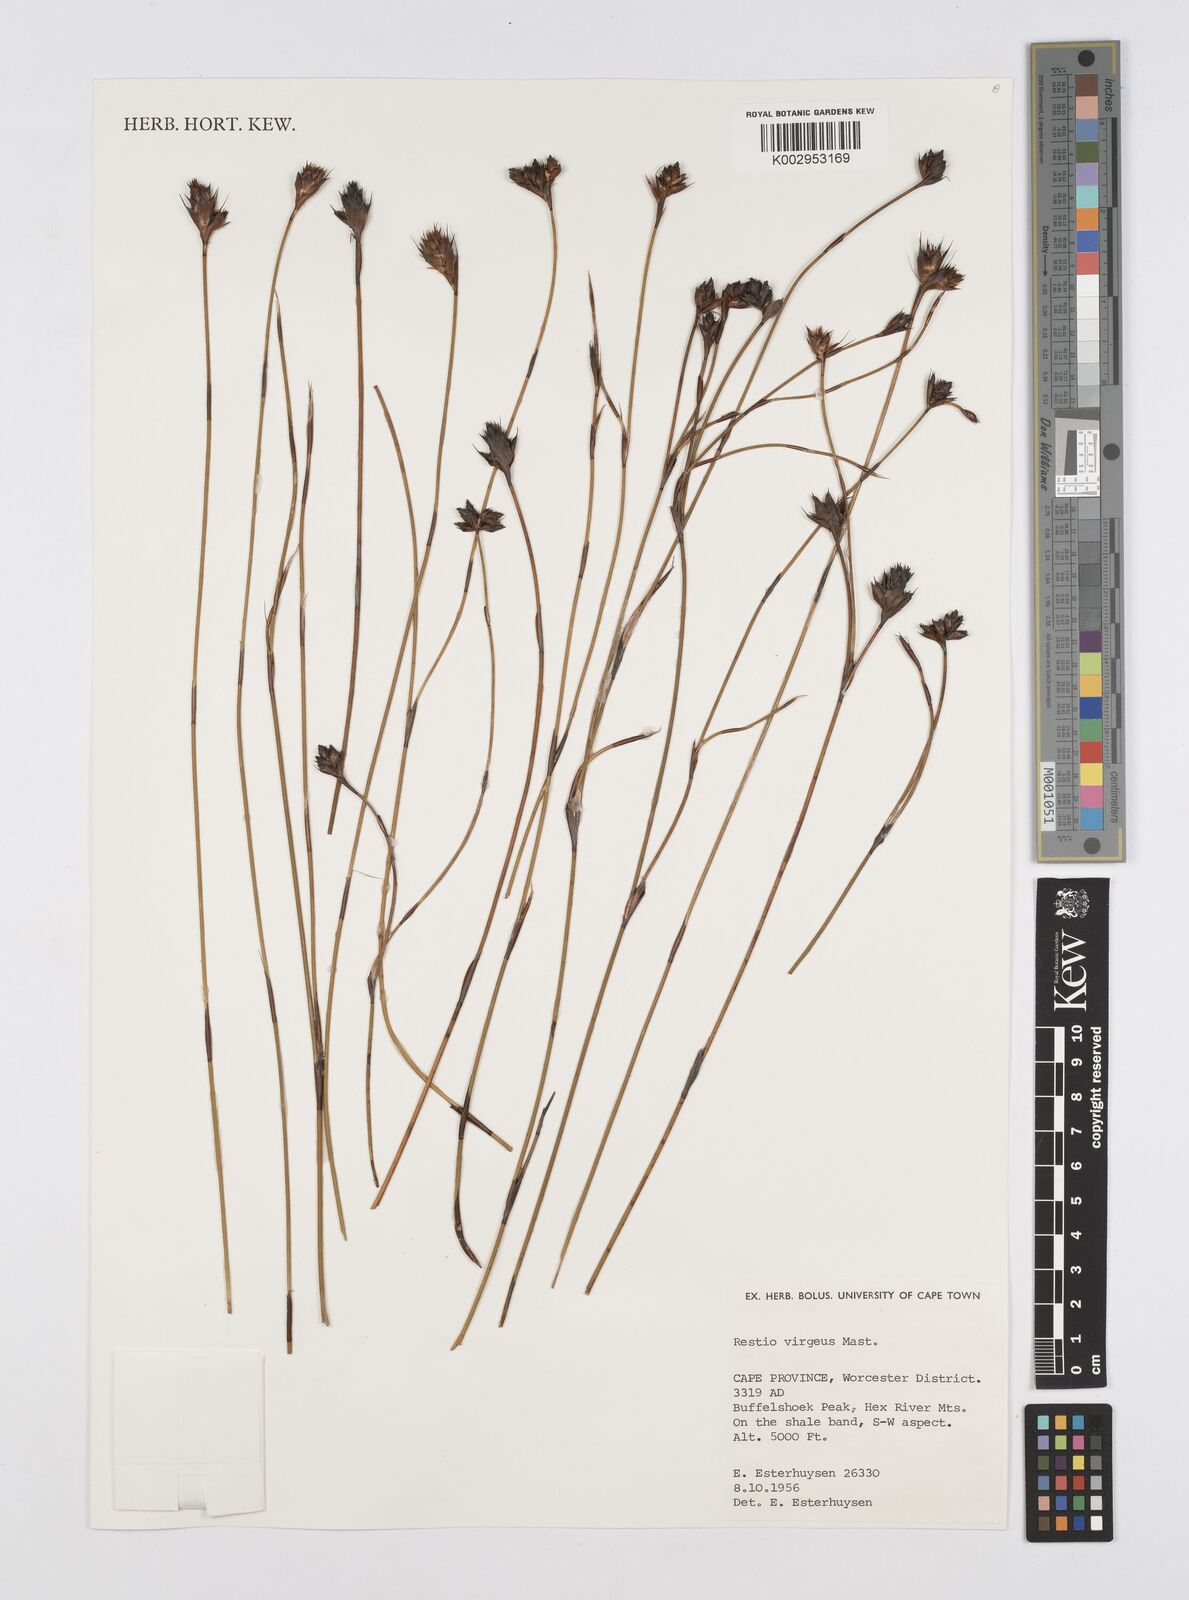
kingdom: Plantae
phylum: Tracheophyta
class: Liliopsida
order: Poales
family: Restionaceae
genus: Restio
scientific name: Restio virgeus
